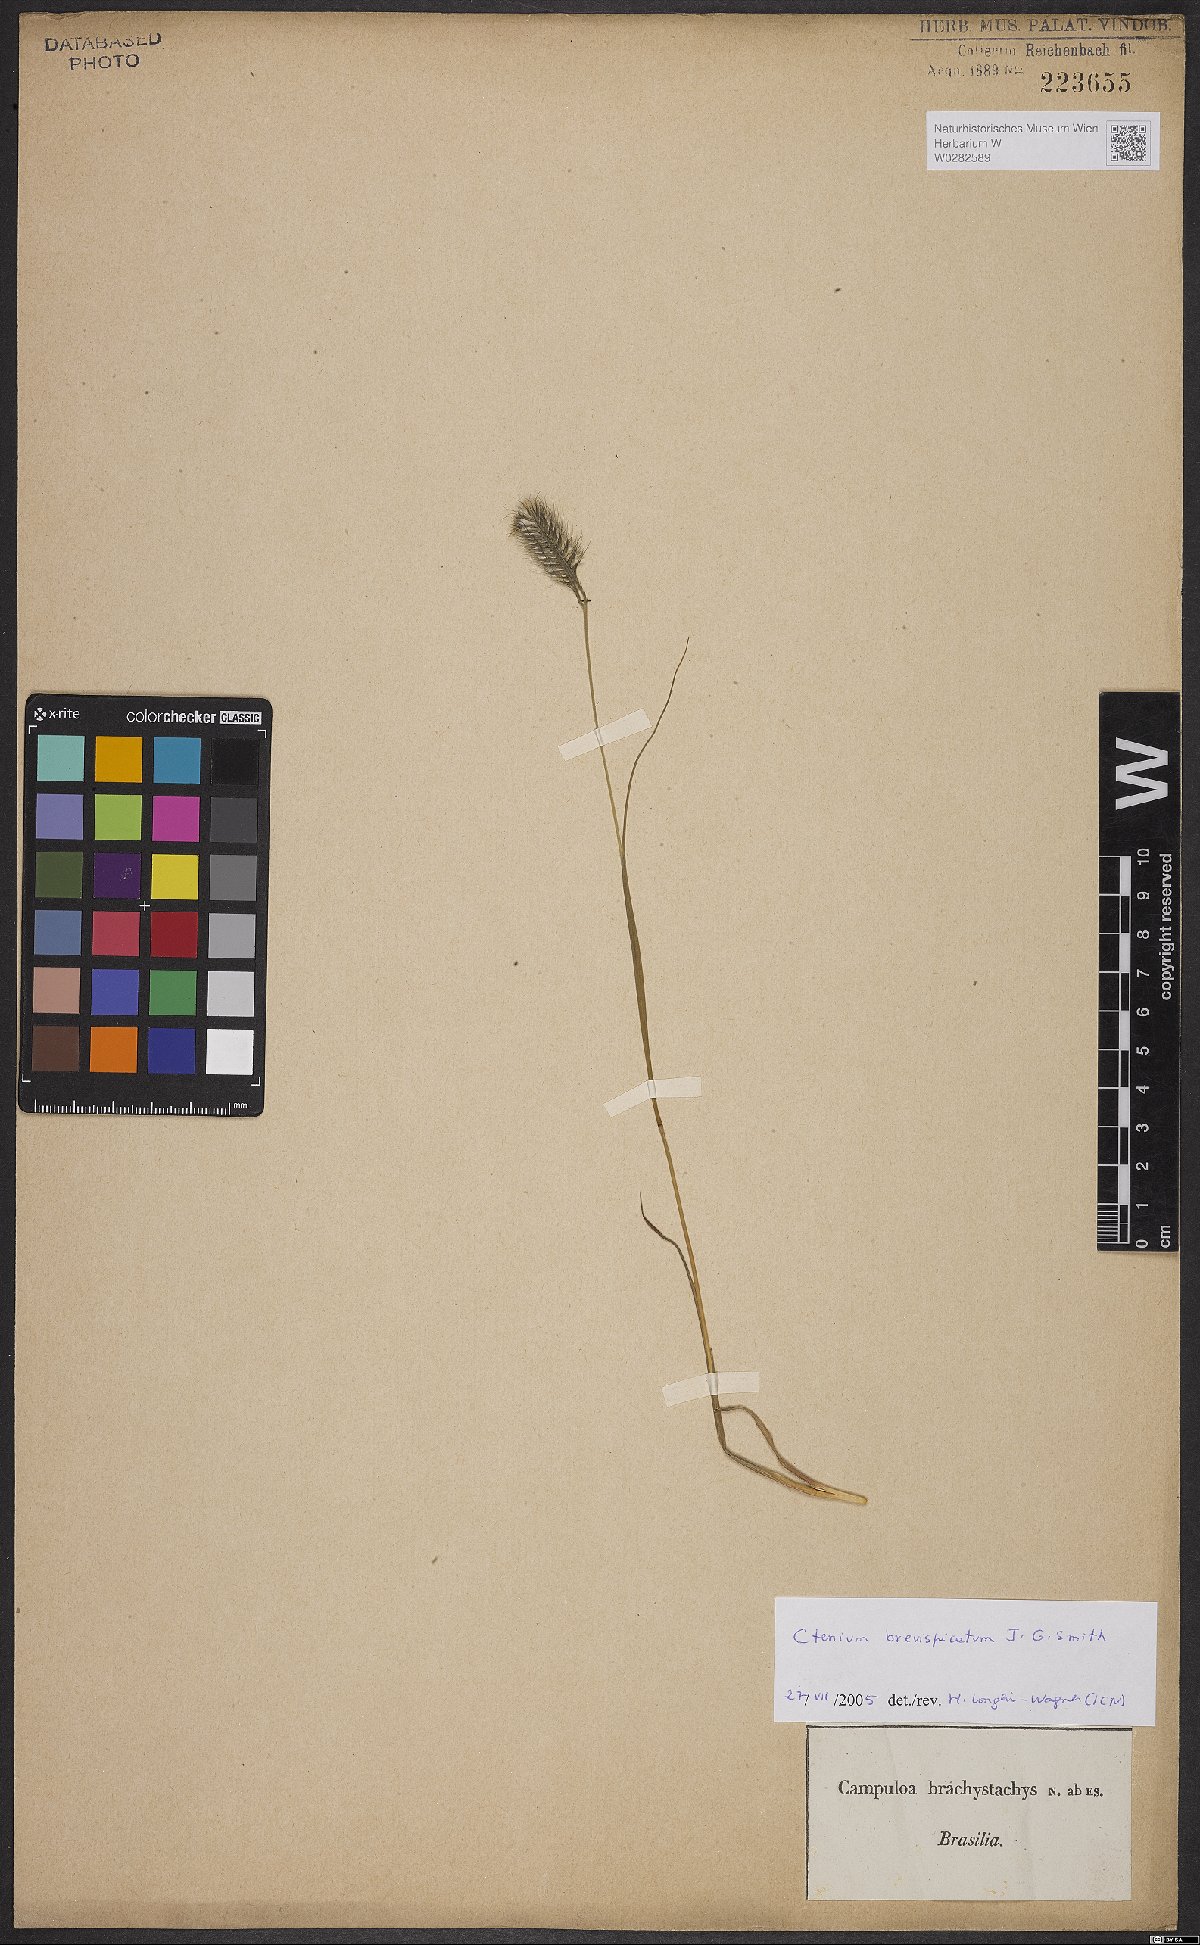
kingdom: Plantae
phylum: Tracheophyta
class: Liliopsida
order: Poales
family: Poaceae
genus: Ctenium
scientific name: Ctenium brevispicatum
